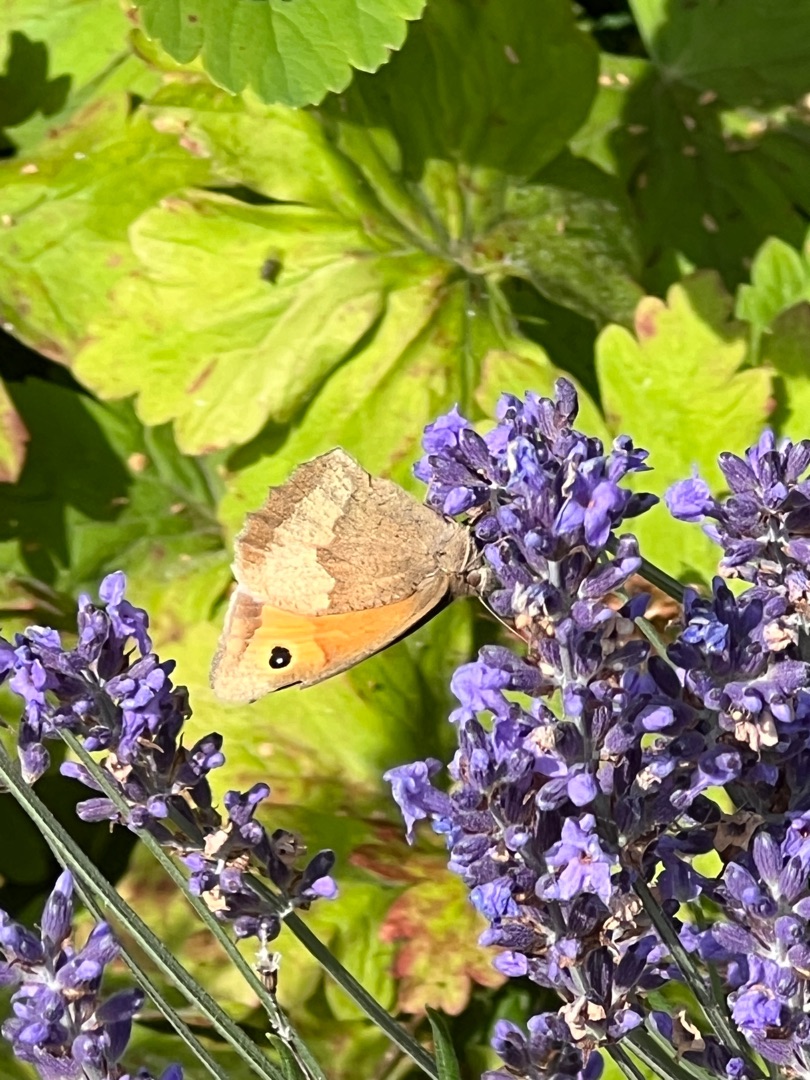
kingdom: Animalia
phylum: Arthropoda
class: Insecta
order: Lepidoptera
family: Nymphalidae
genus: Maniola
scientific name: Maniola jurtina
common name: Græsrandøje
